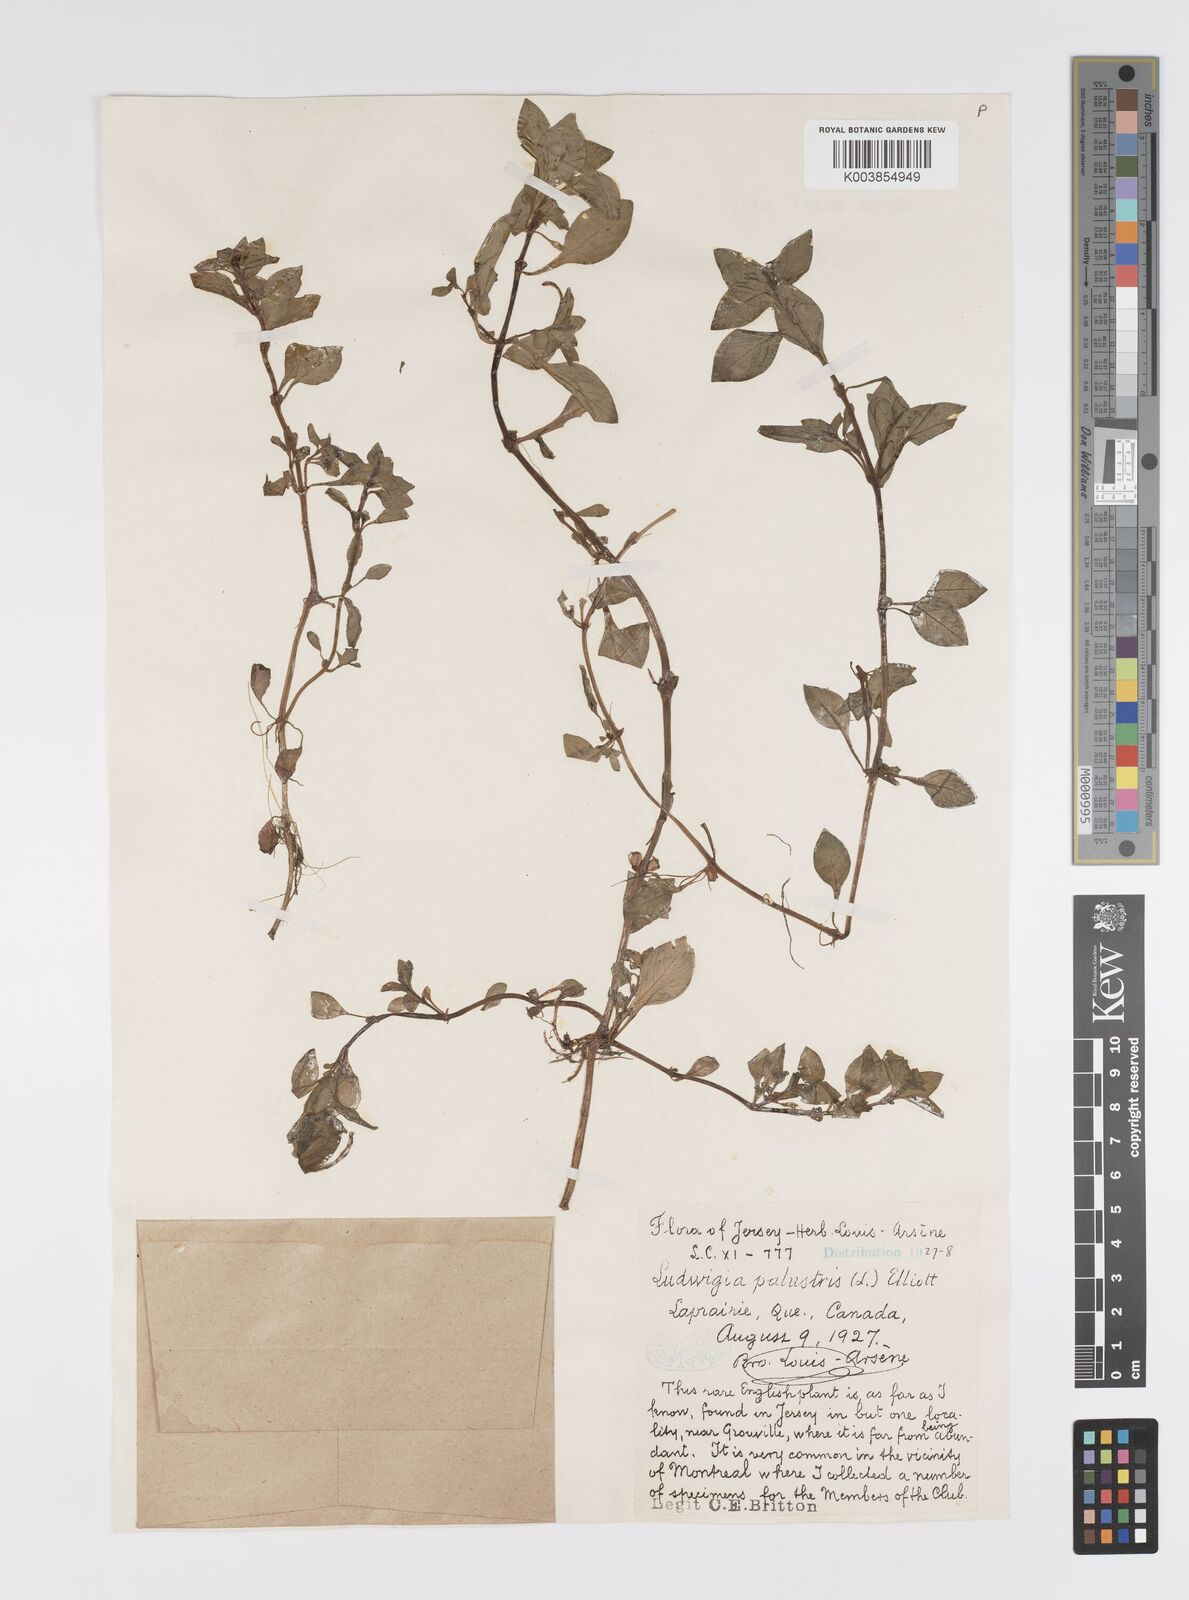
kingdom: Plantae
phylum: Tracheophyta
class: Magnoliopsida
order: Myrtales
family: Onagraceae
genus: Ludwigia
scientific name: Ludwigia palustris
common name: Hampshire-purslane
